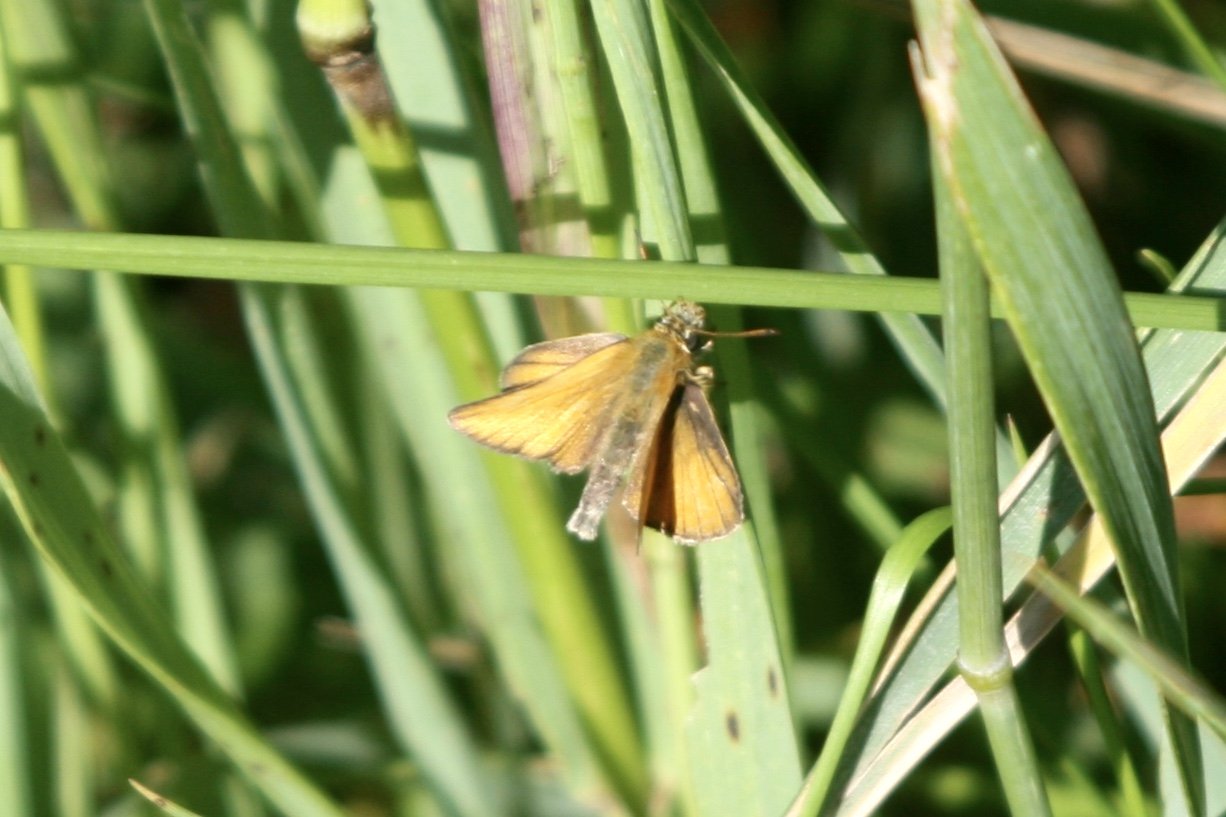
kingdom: Animalia
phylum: Arthropoda
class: Insecta
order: Lepidoptera
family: Hesperiidae
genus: Thymelicus
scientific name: Thymelicus lineola
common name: European Skipper
